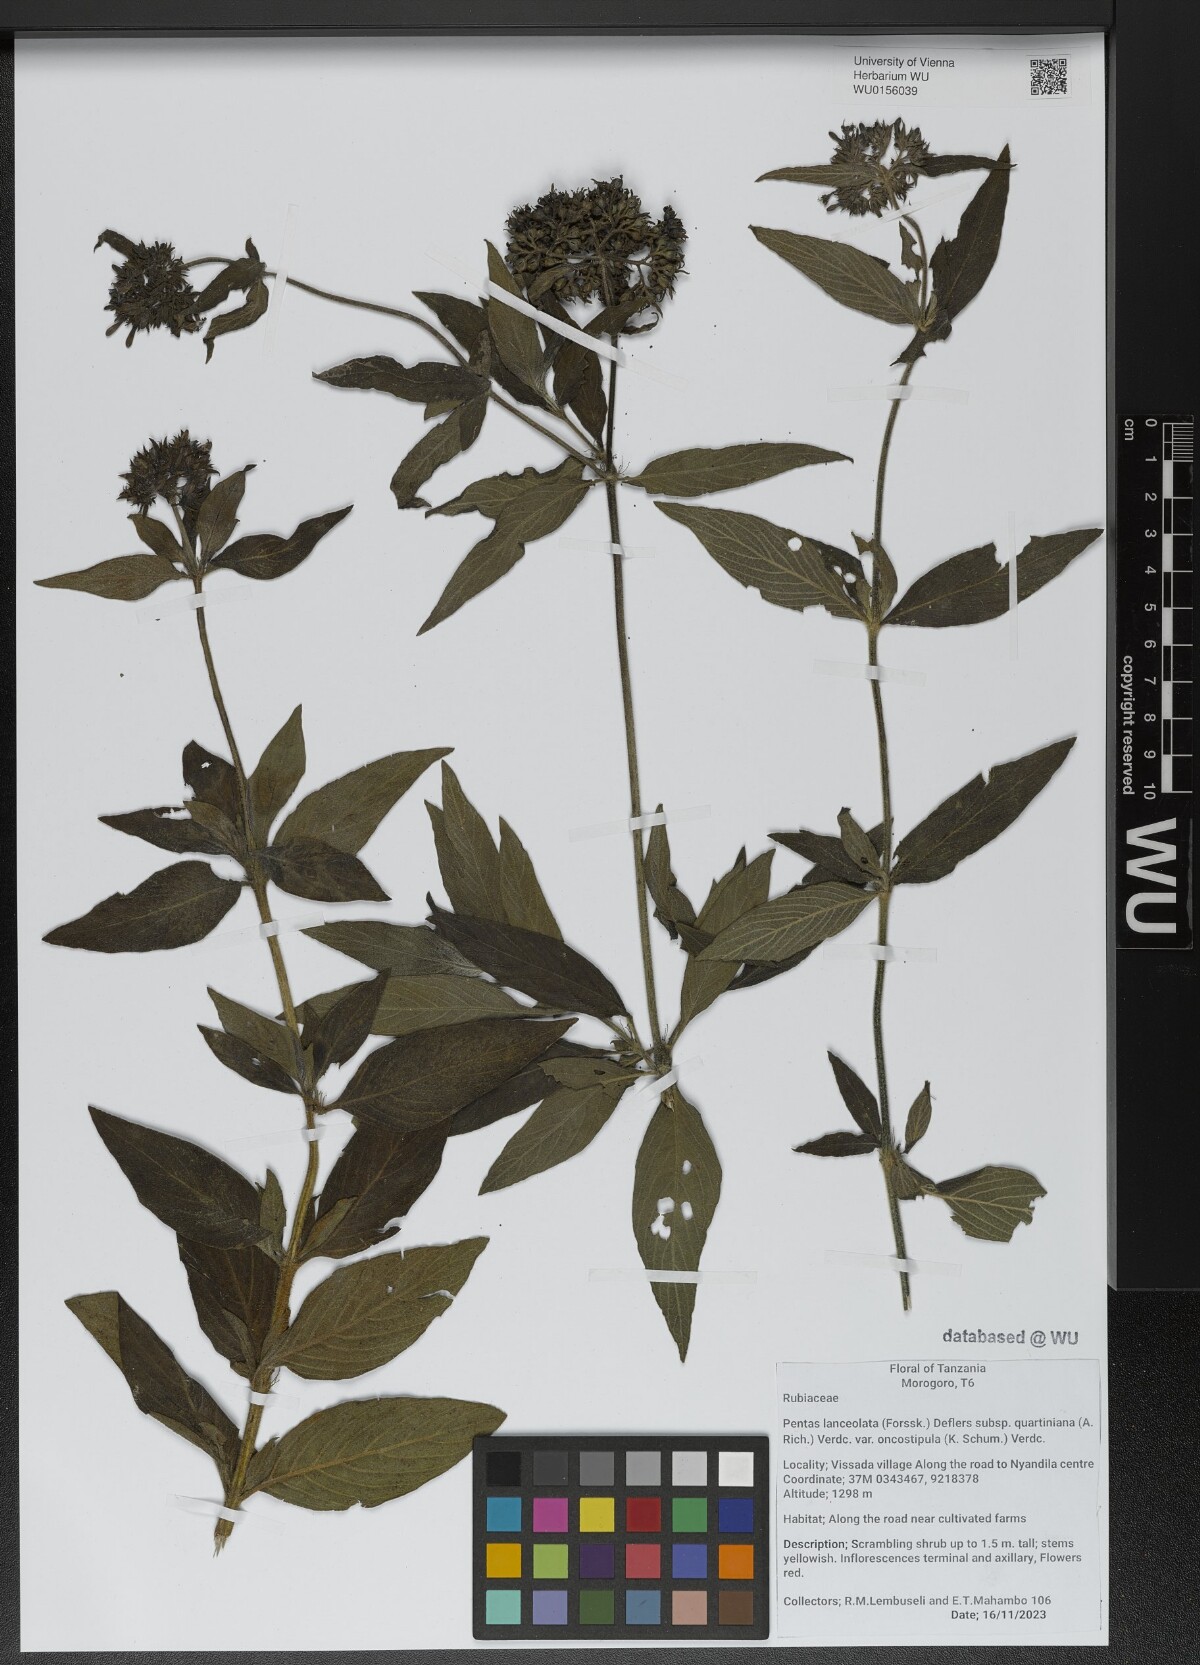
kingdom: Plantae
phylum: Tracheophyta
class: Magnoliopsida
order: Gentianales
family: Rubiaceae
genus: Pentas
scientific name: Pentas lanceolata
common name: Egyptian starcluster
